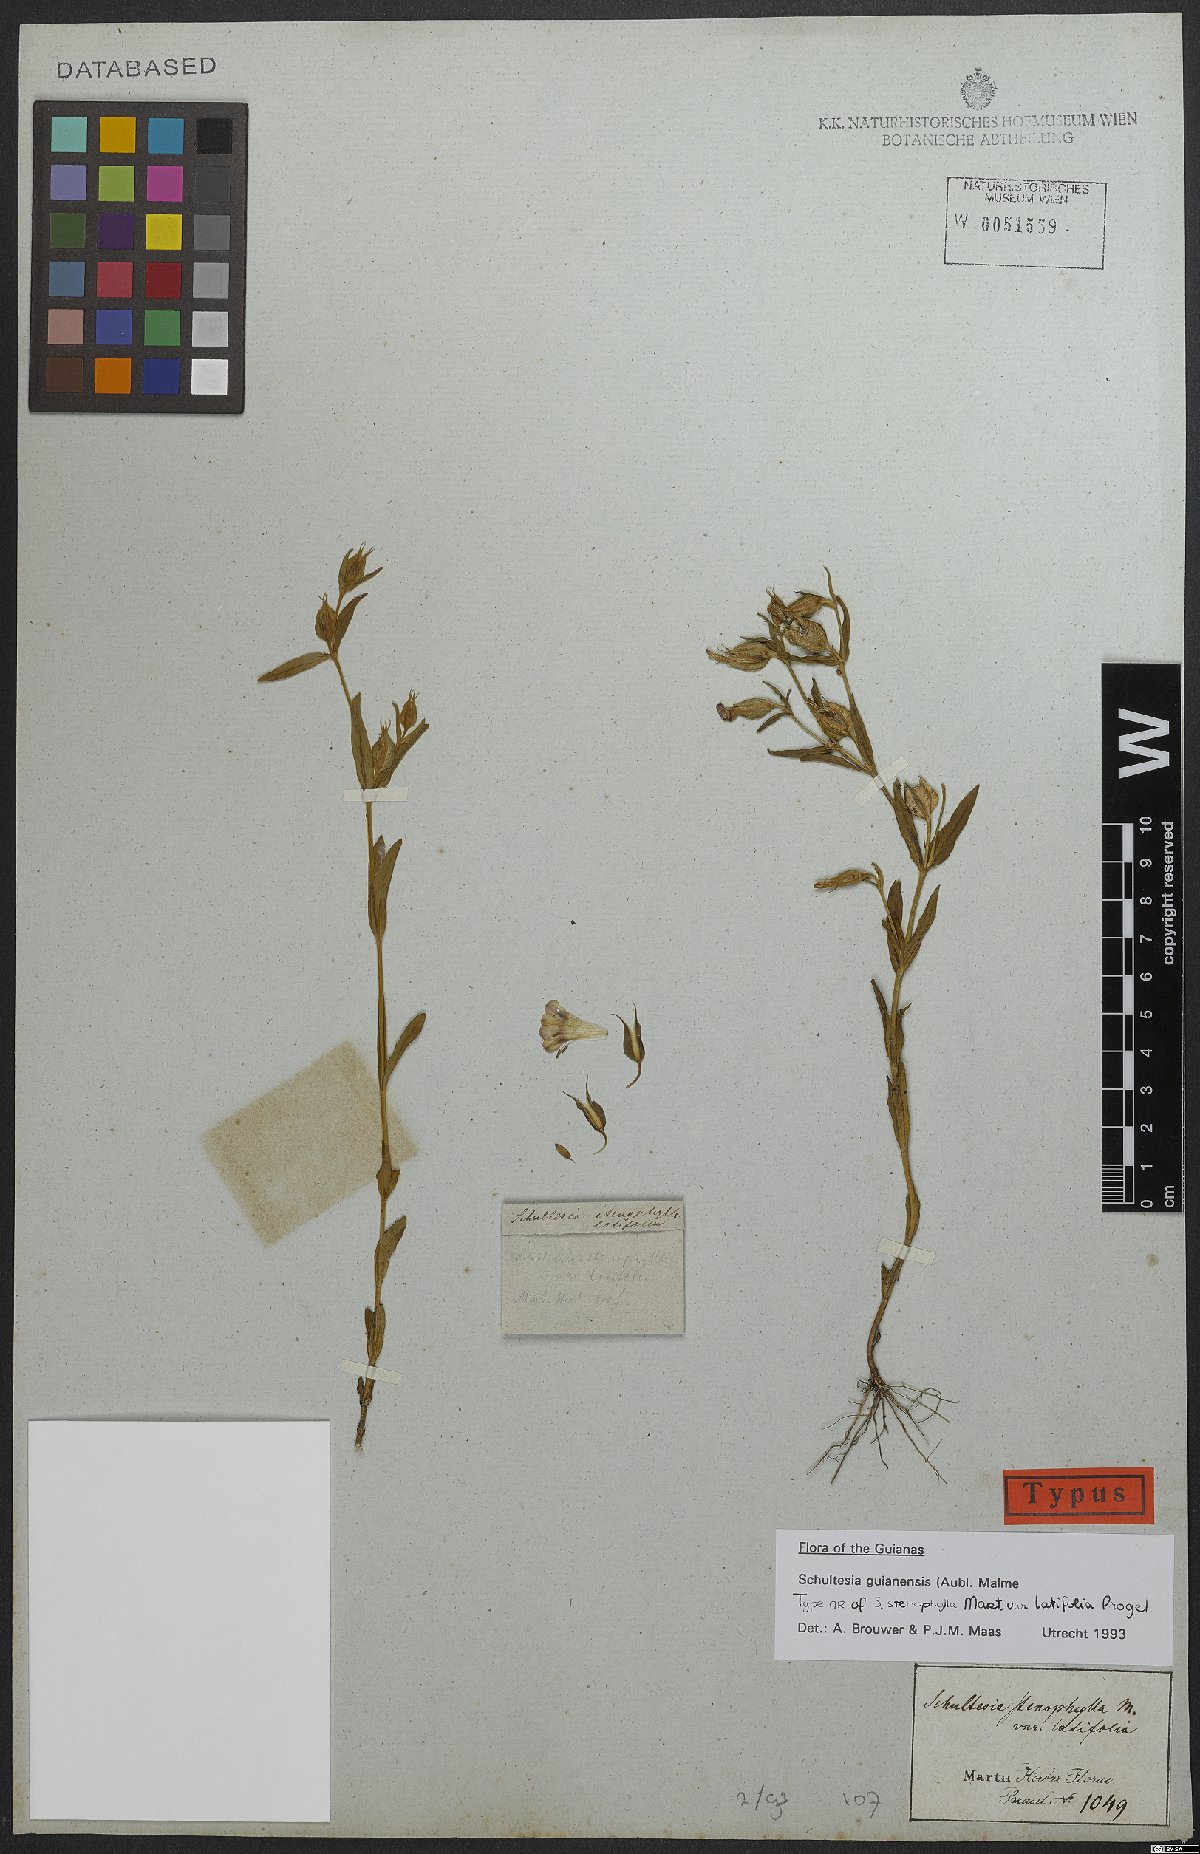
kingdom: Plantae
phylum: Tracheophyta
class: Magnoliopsida
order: Gentianales
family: Gentianaceae
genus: Schultesia
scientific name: Schultesia guianensis
